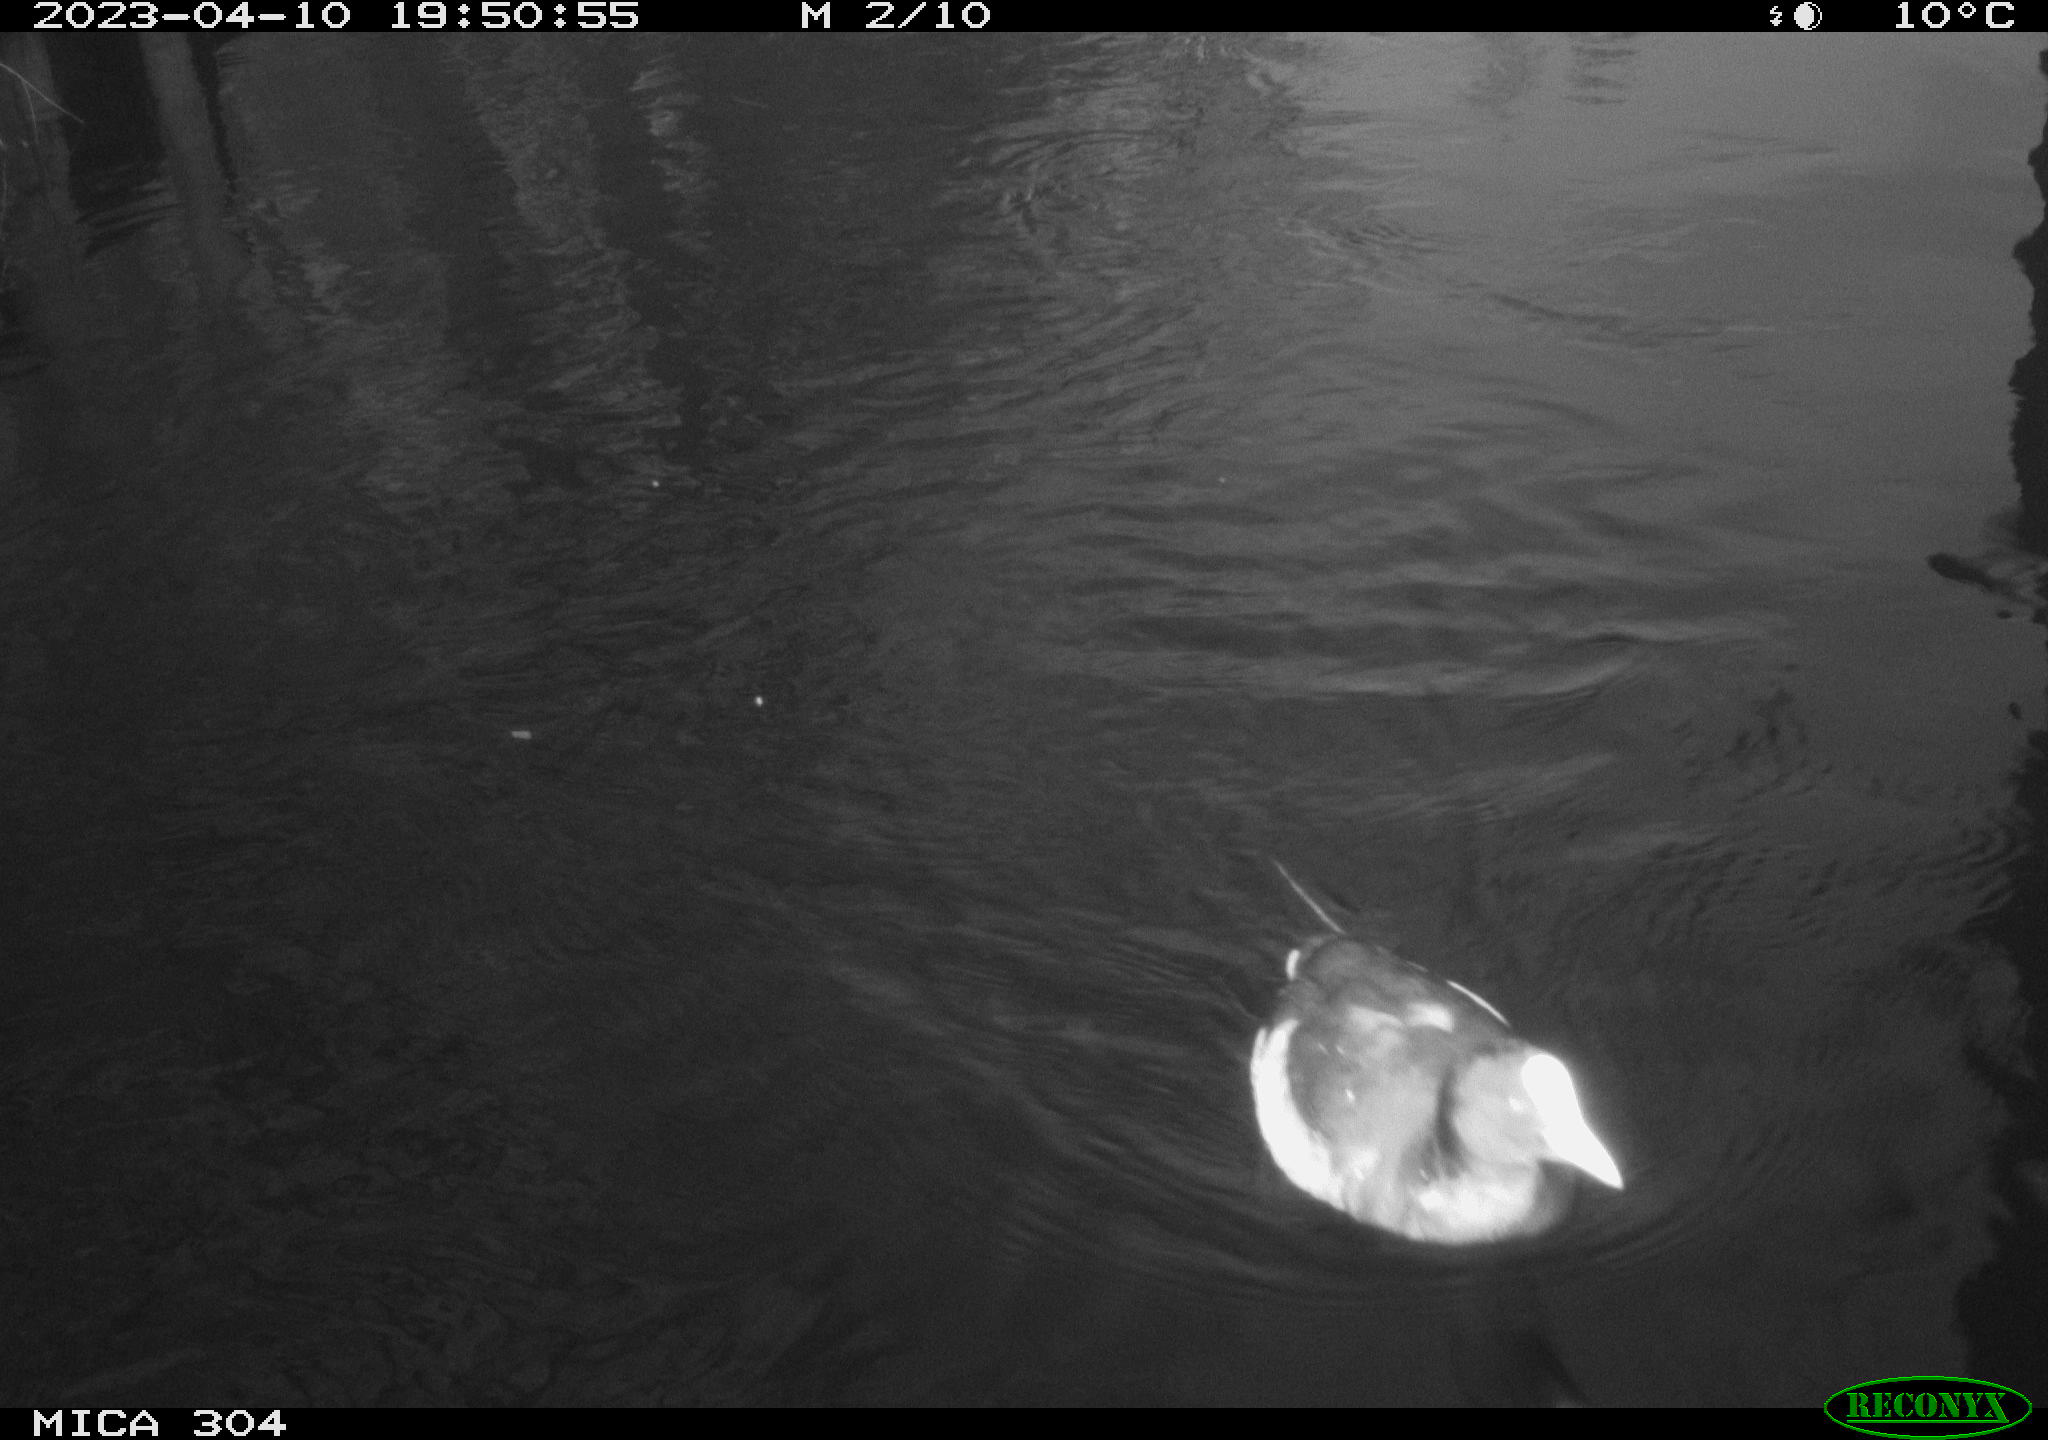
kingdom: Animalia
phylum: Chordata
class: Aves
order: Gruiformes
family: Rallidae
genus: Fulica
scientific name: Fulica atra
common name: Eurasian coot
